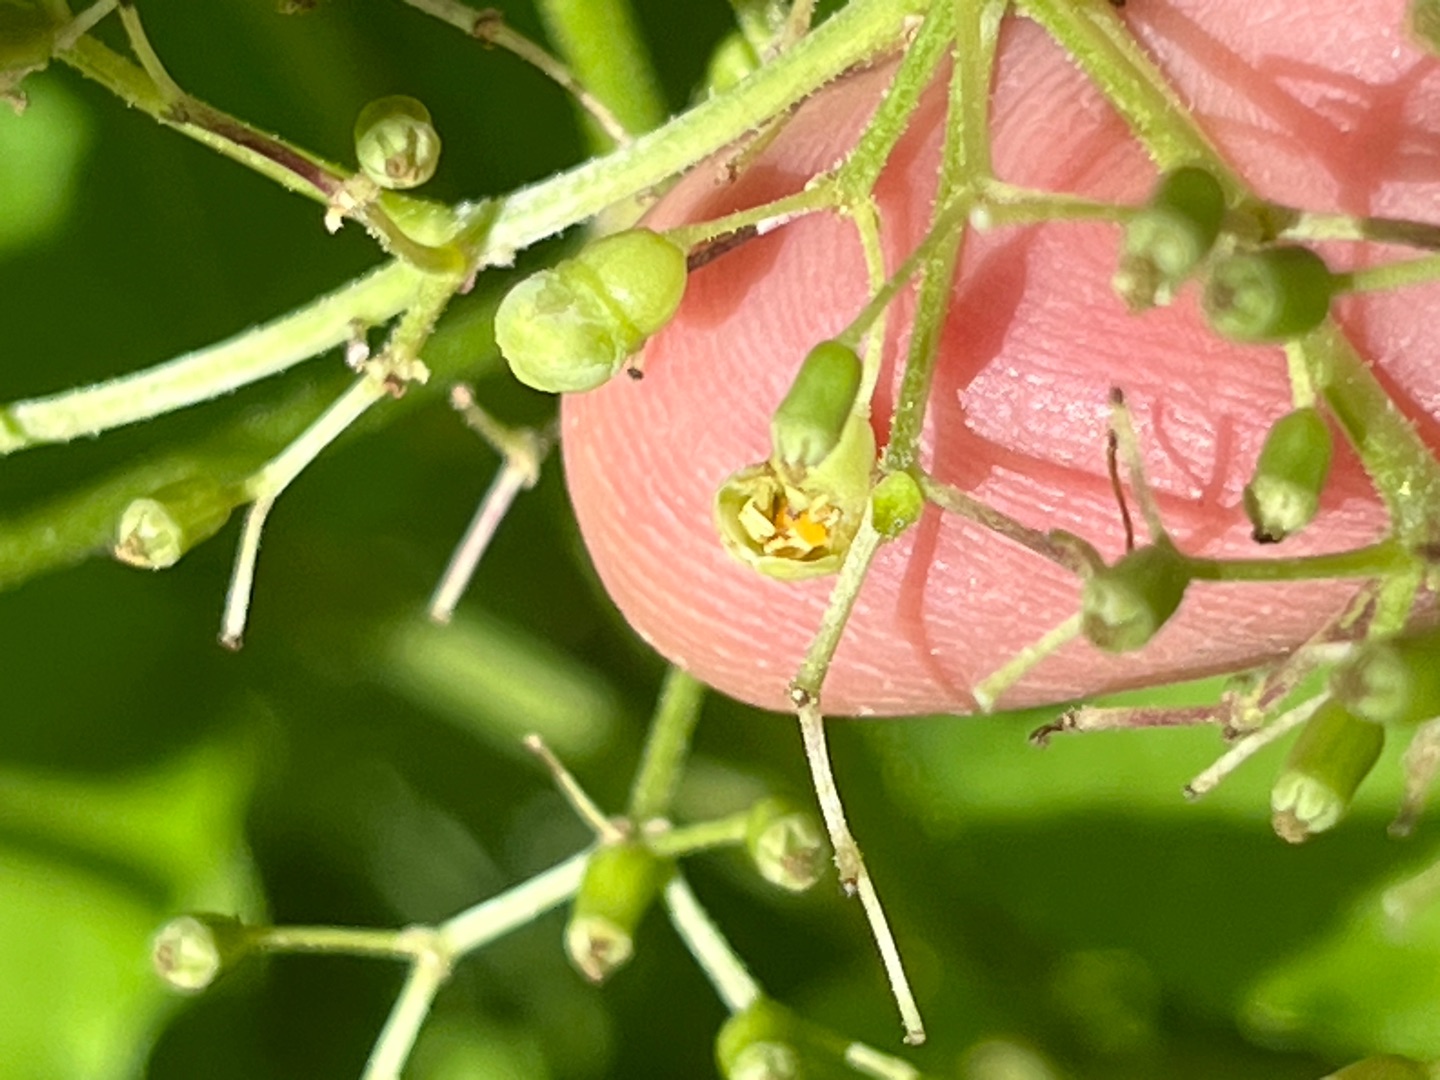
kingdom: Animalia
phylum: Arthropoda
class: Insecta
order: Diptera
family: Cecidomyiidae
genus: Placochela
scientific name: Placochela nigripes
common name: Hyldeblomstgalmyg
